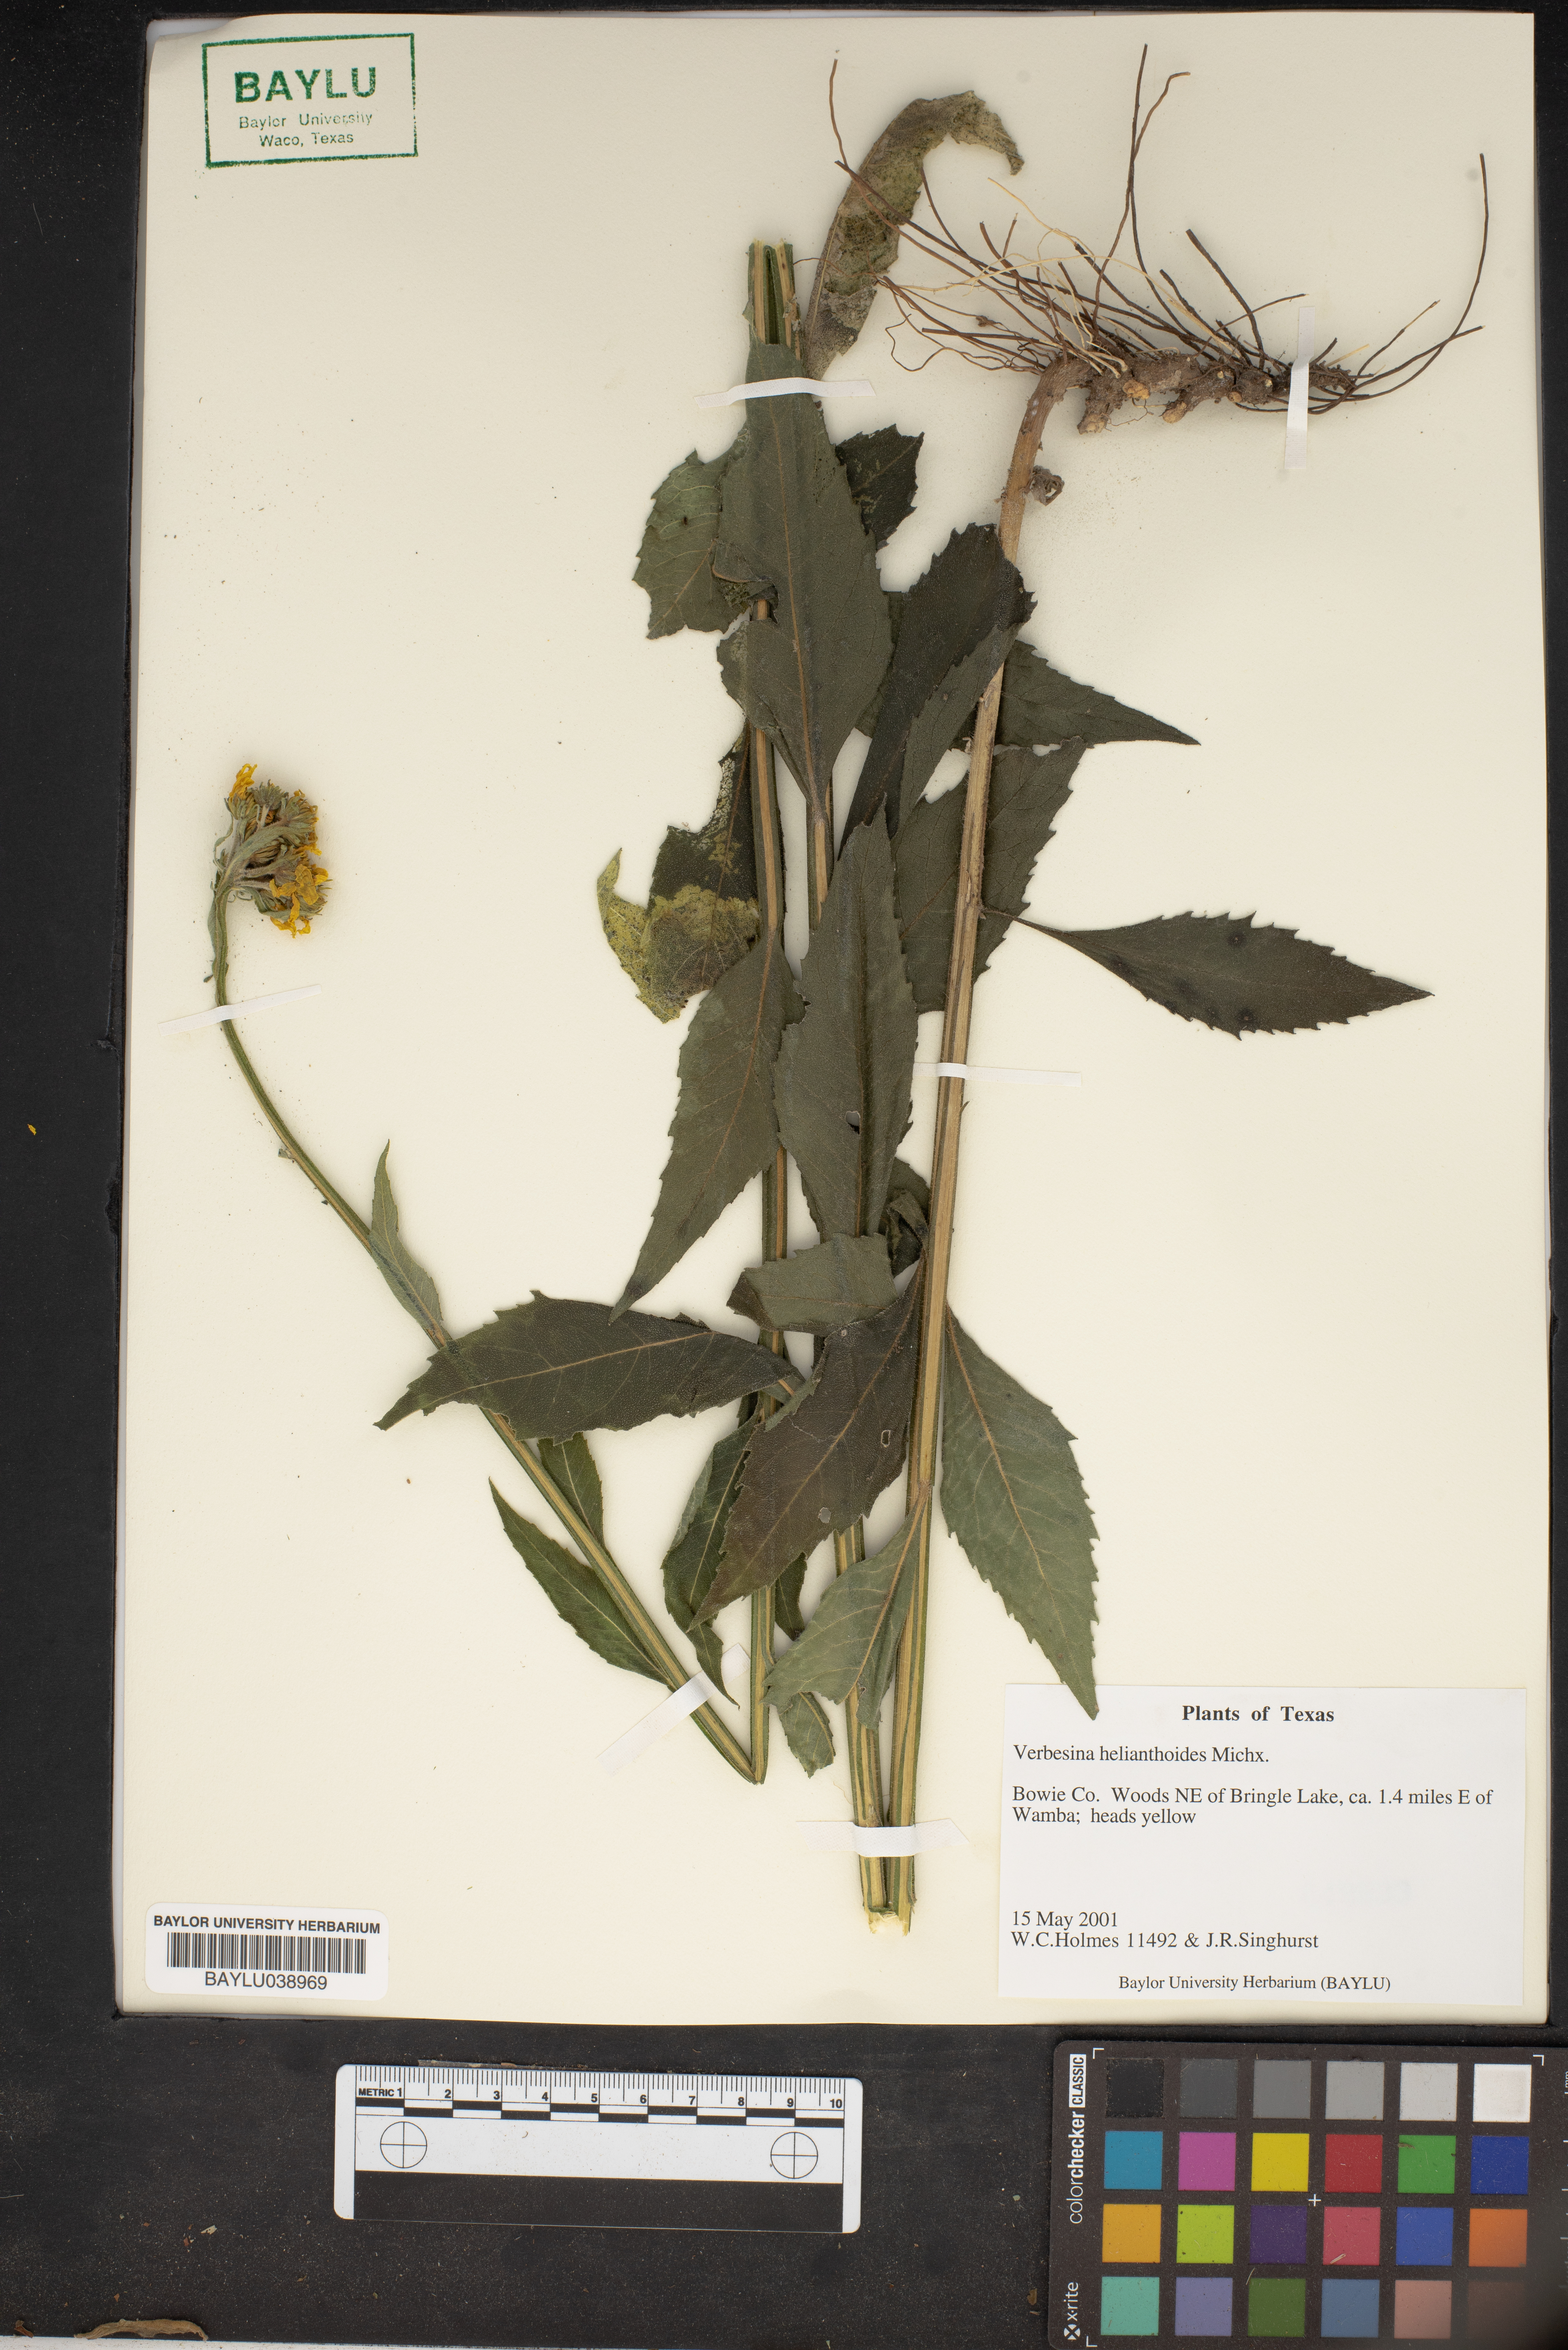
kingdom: Plantae
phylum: Tracheophyta
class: Magnoliopsida
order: Asterales
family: Asteraceae
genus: Verbesina
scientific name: Verbesina helianthoides
